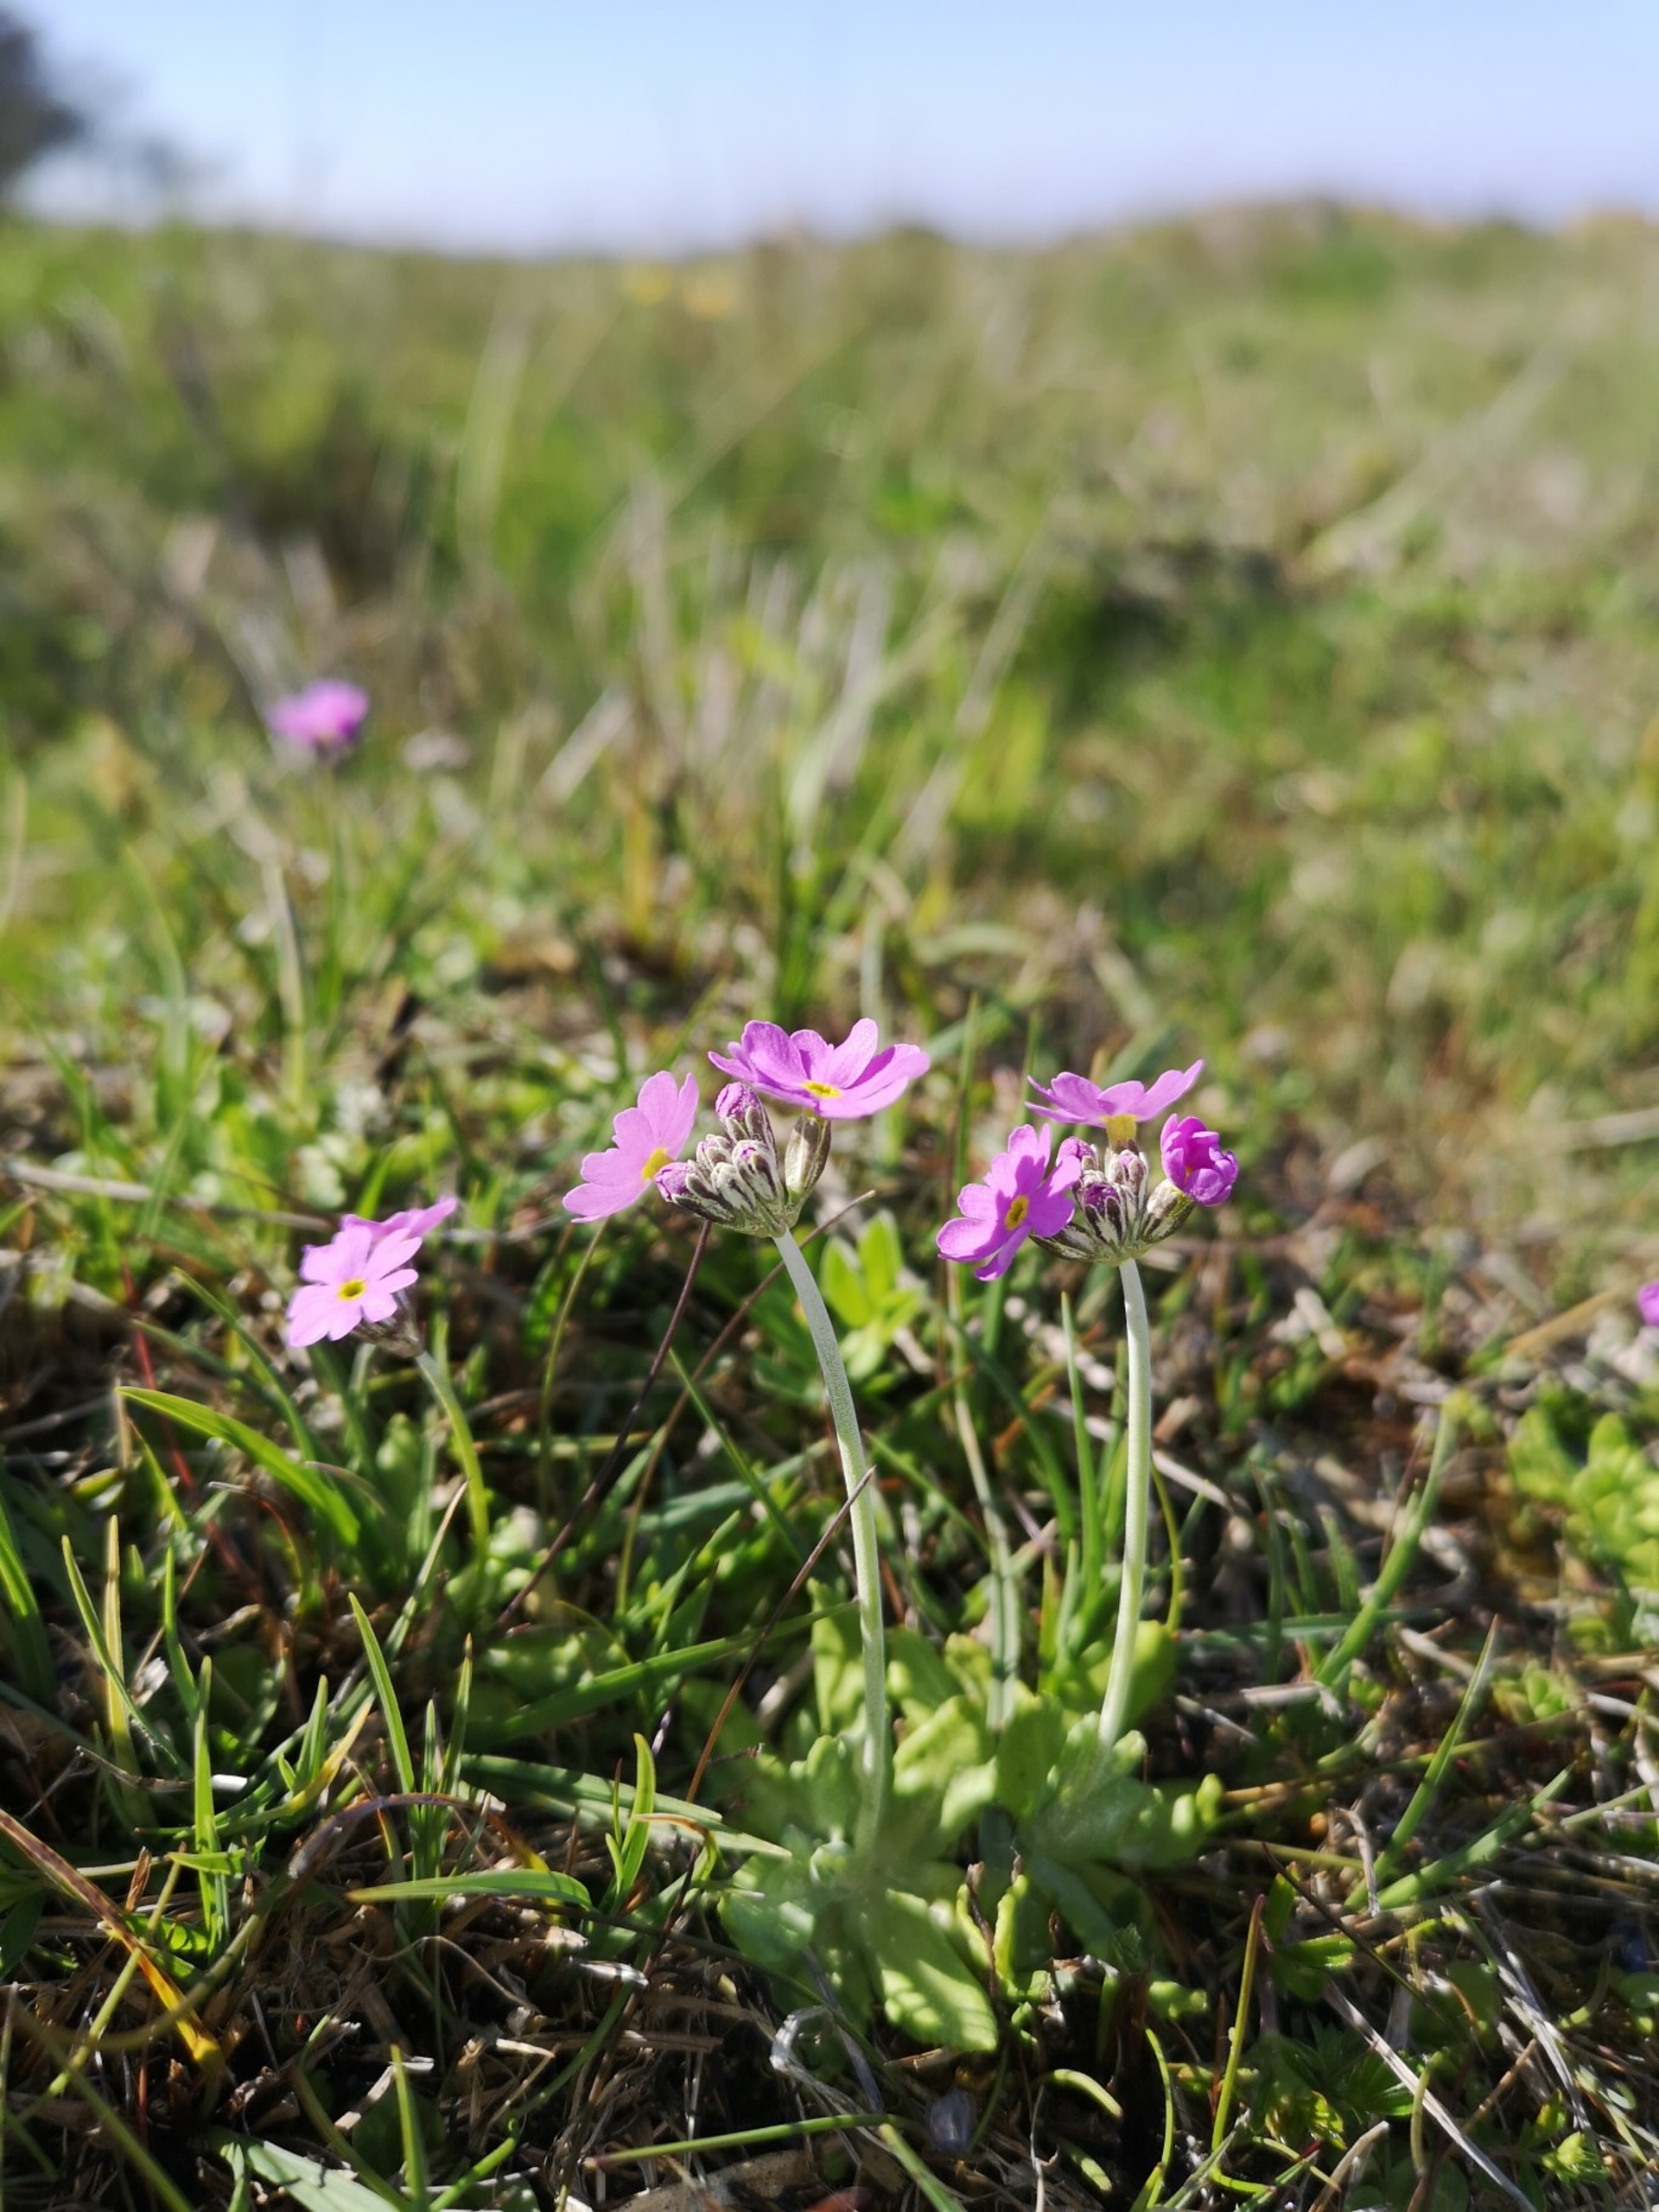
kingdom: Plantae
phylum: Tracheophyta
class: Magnoliopsida
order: Ericales
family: Primulaceae
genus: Primula
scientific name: Primula farinosa
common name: Melet kodriver
